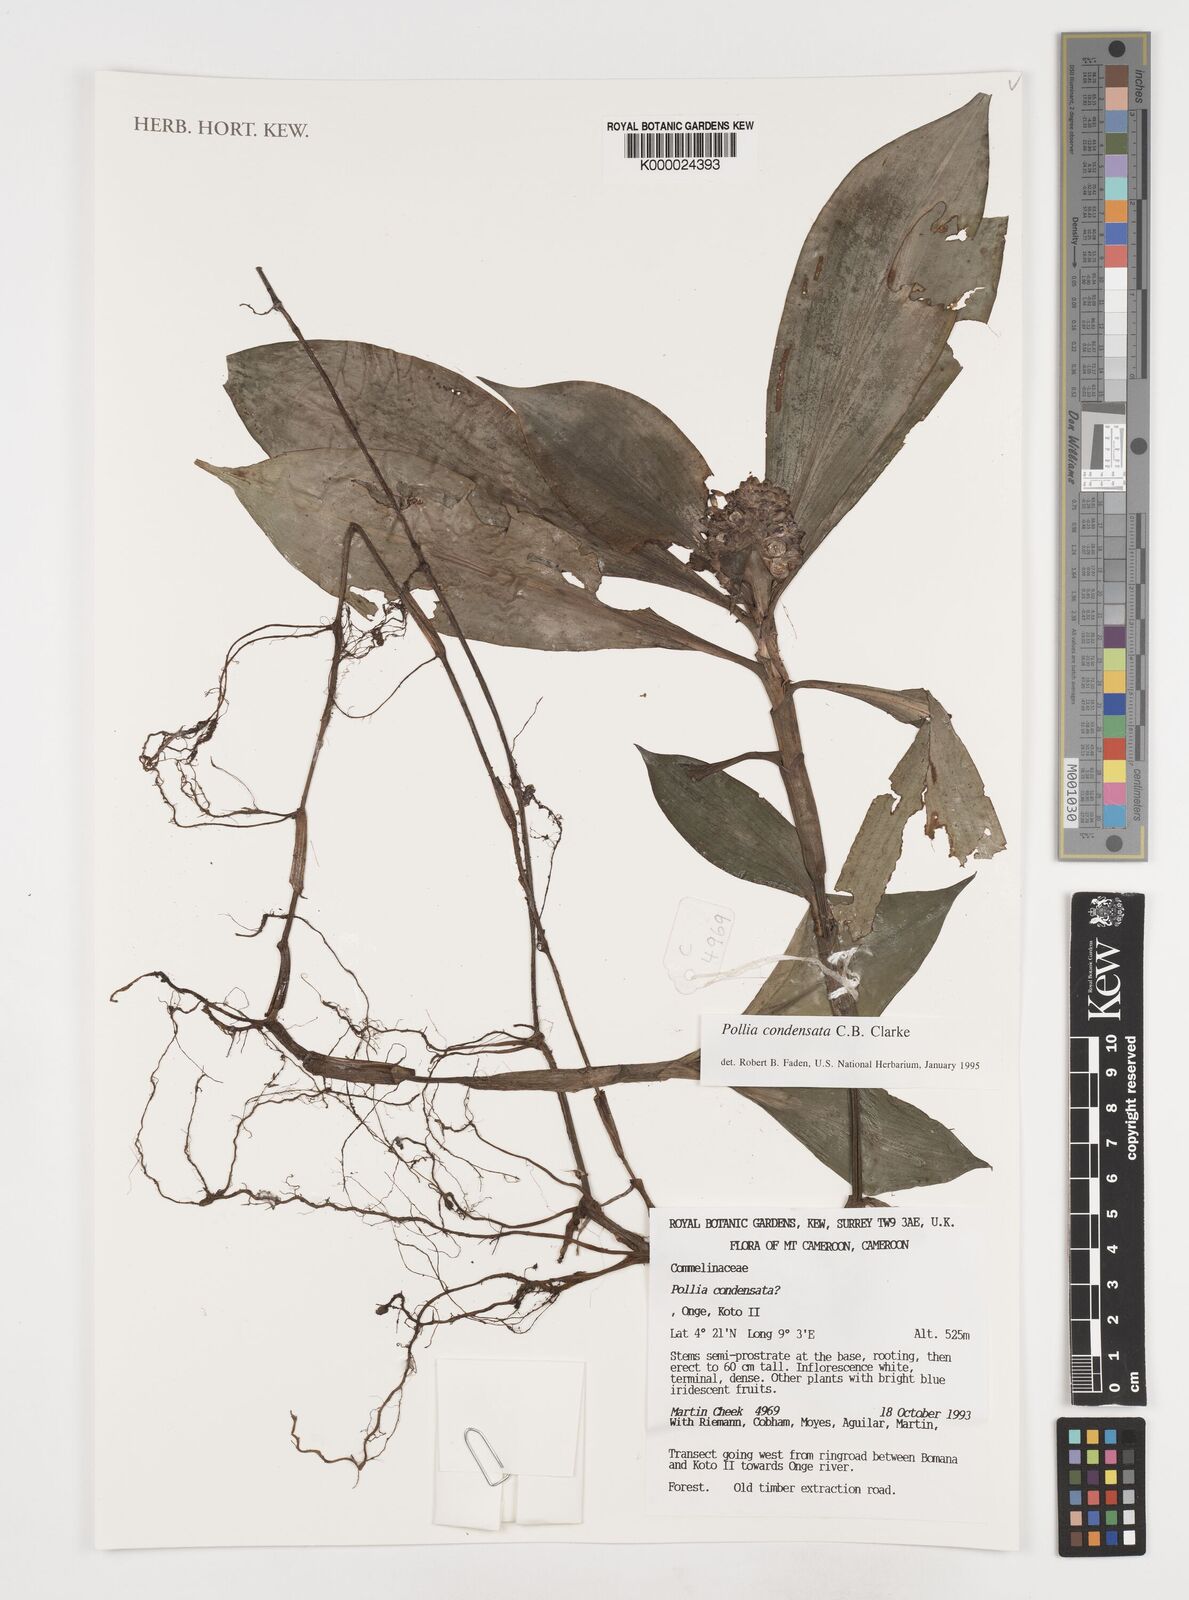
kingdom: Plantae
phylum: Tracheophyta
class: Liliopsida
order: Commelinales
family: Commelinaceae
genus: Pollia
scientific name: Pollia condensata
